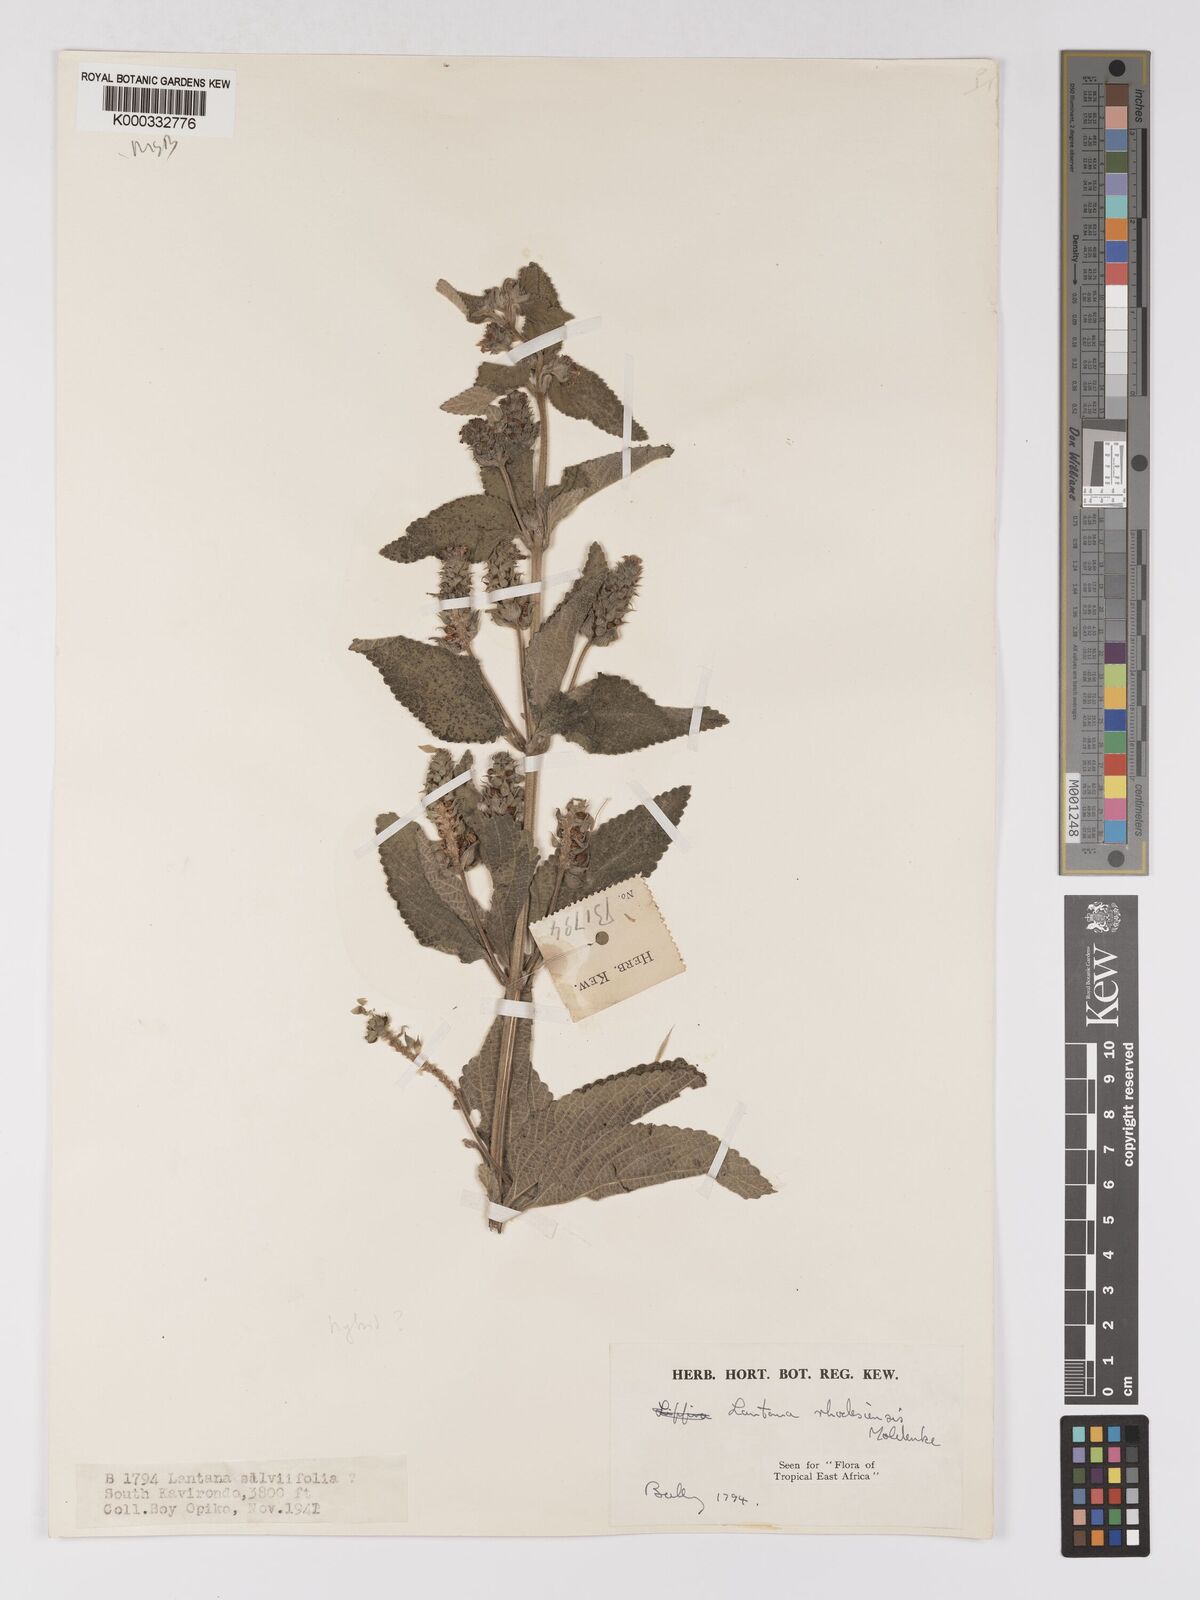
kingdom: Plantae
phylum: Tracheophyta
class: Magnoliopsida
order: Lamiales
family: Verbenaceae
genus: Lantana
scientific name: Lantana ukambensis
